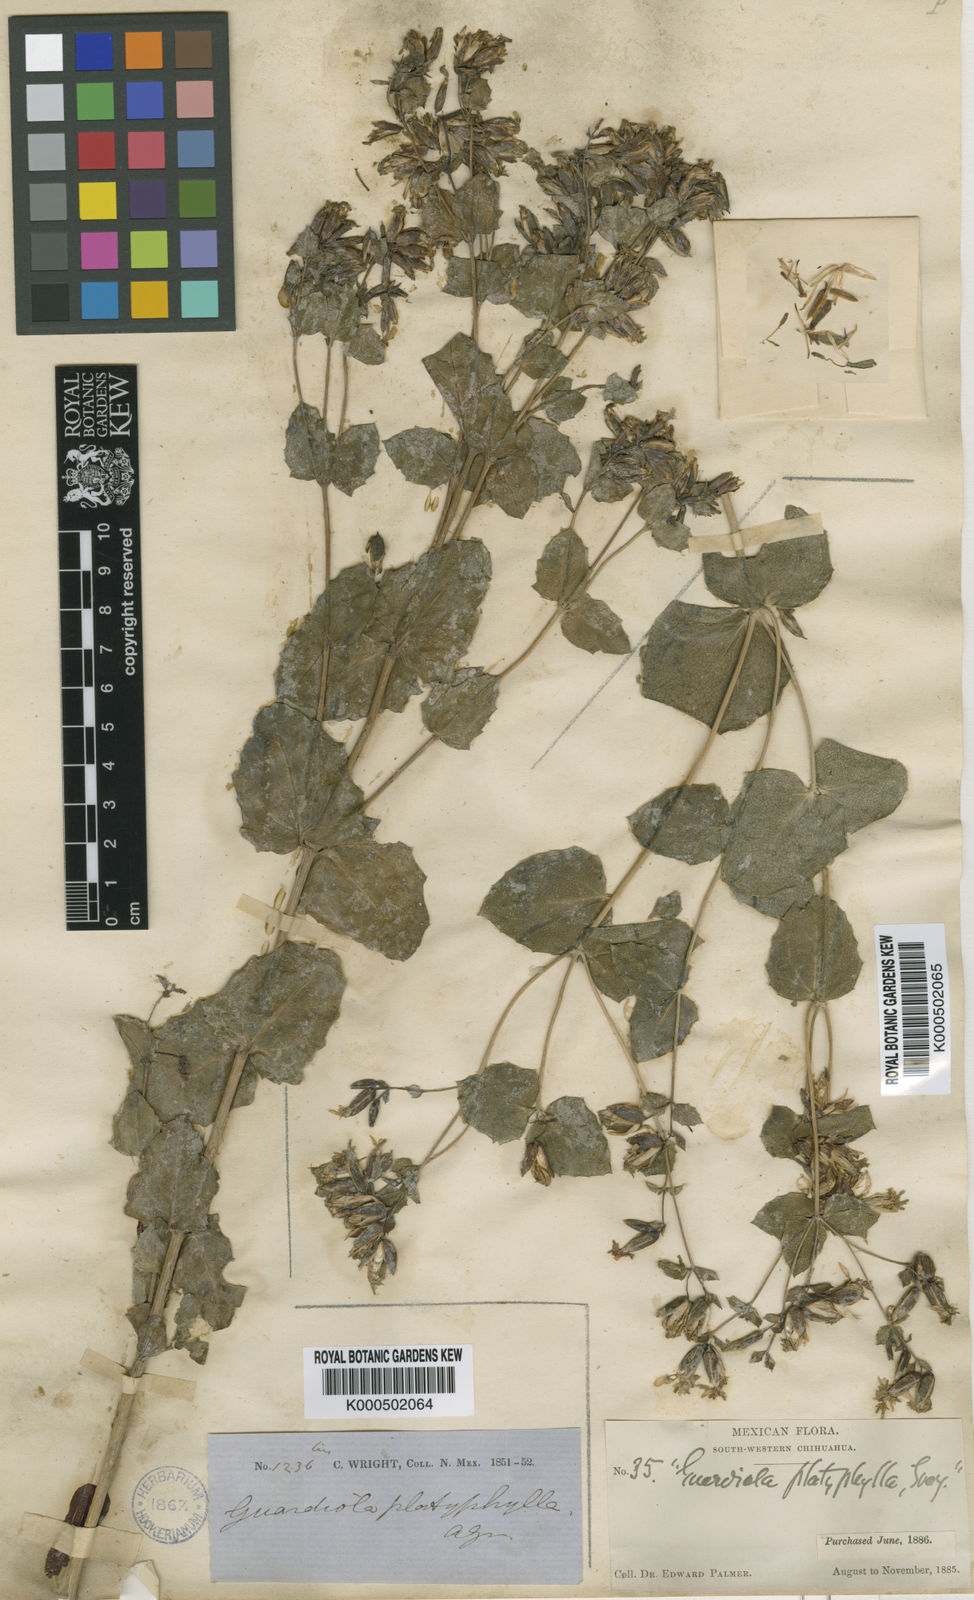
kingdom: Plantae
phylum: Tracheophyta
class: Magnoliopsida
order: Asterales
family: Asteraceae
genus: Guardiola
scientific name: Guardiola platyphylla
